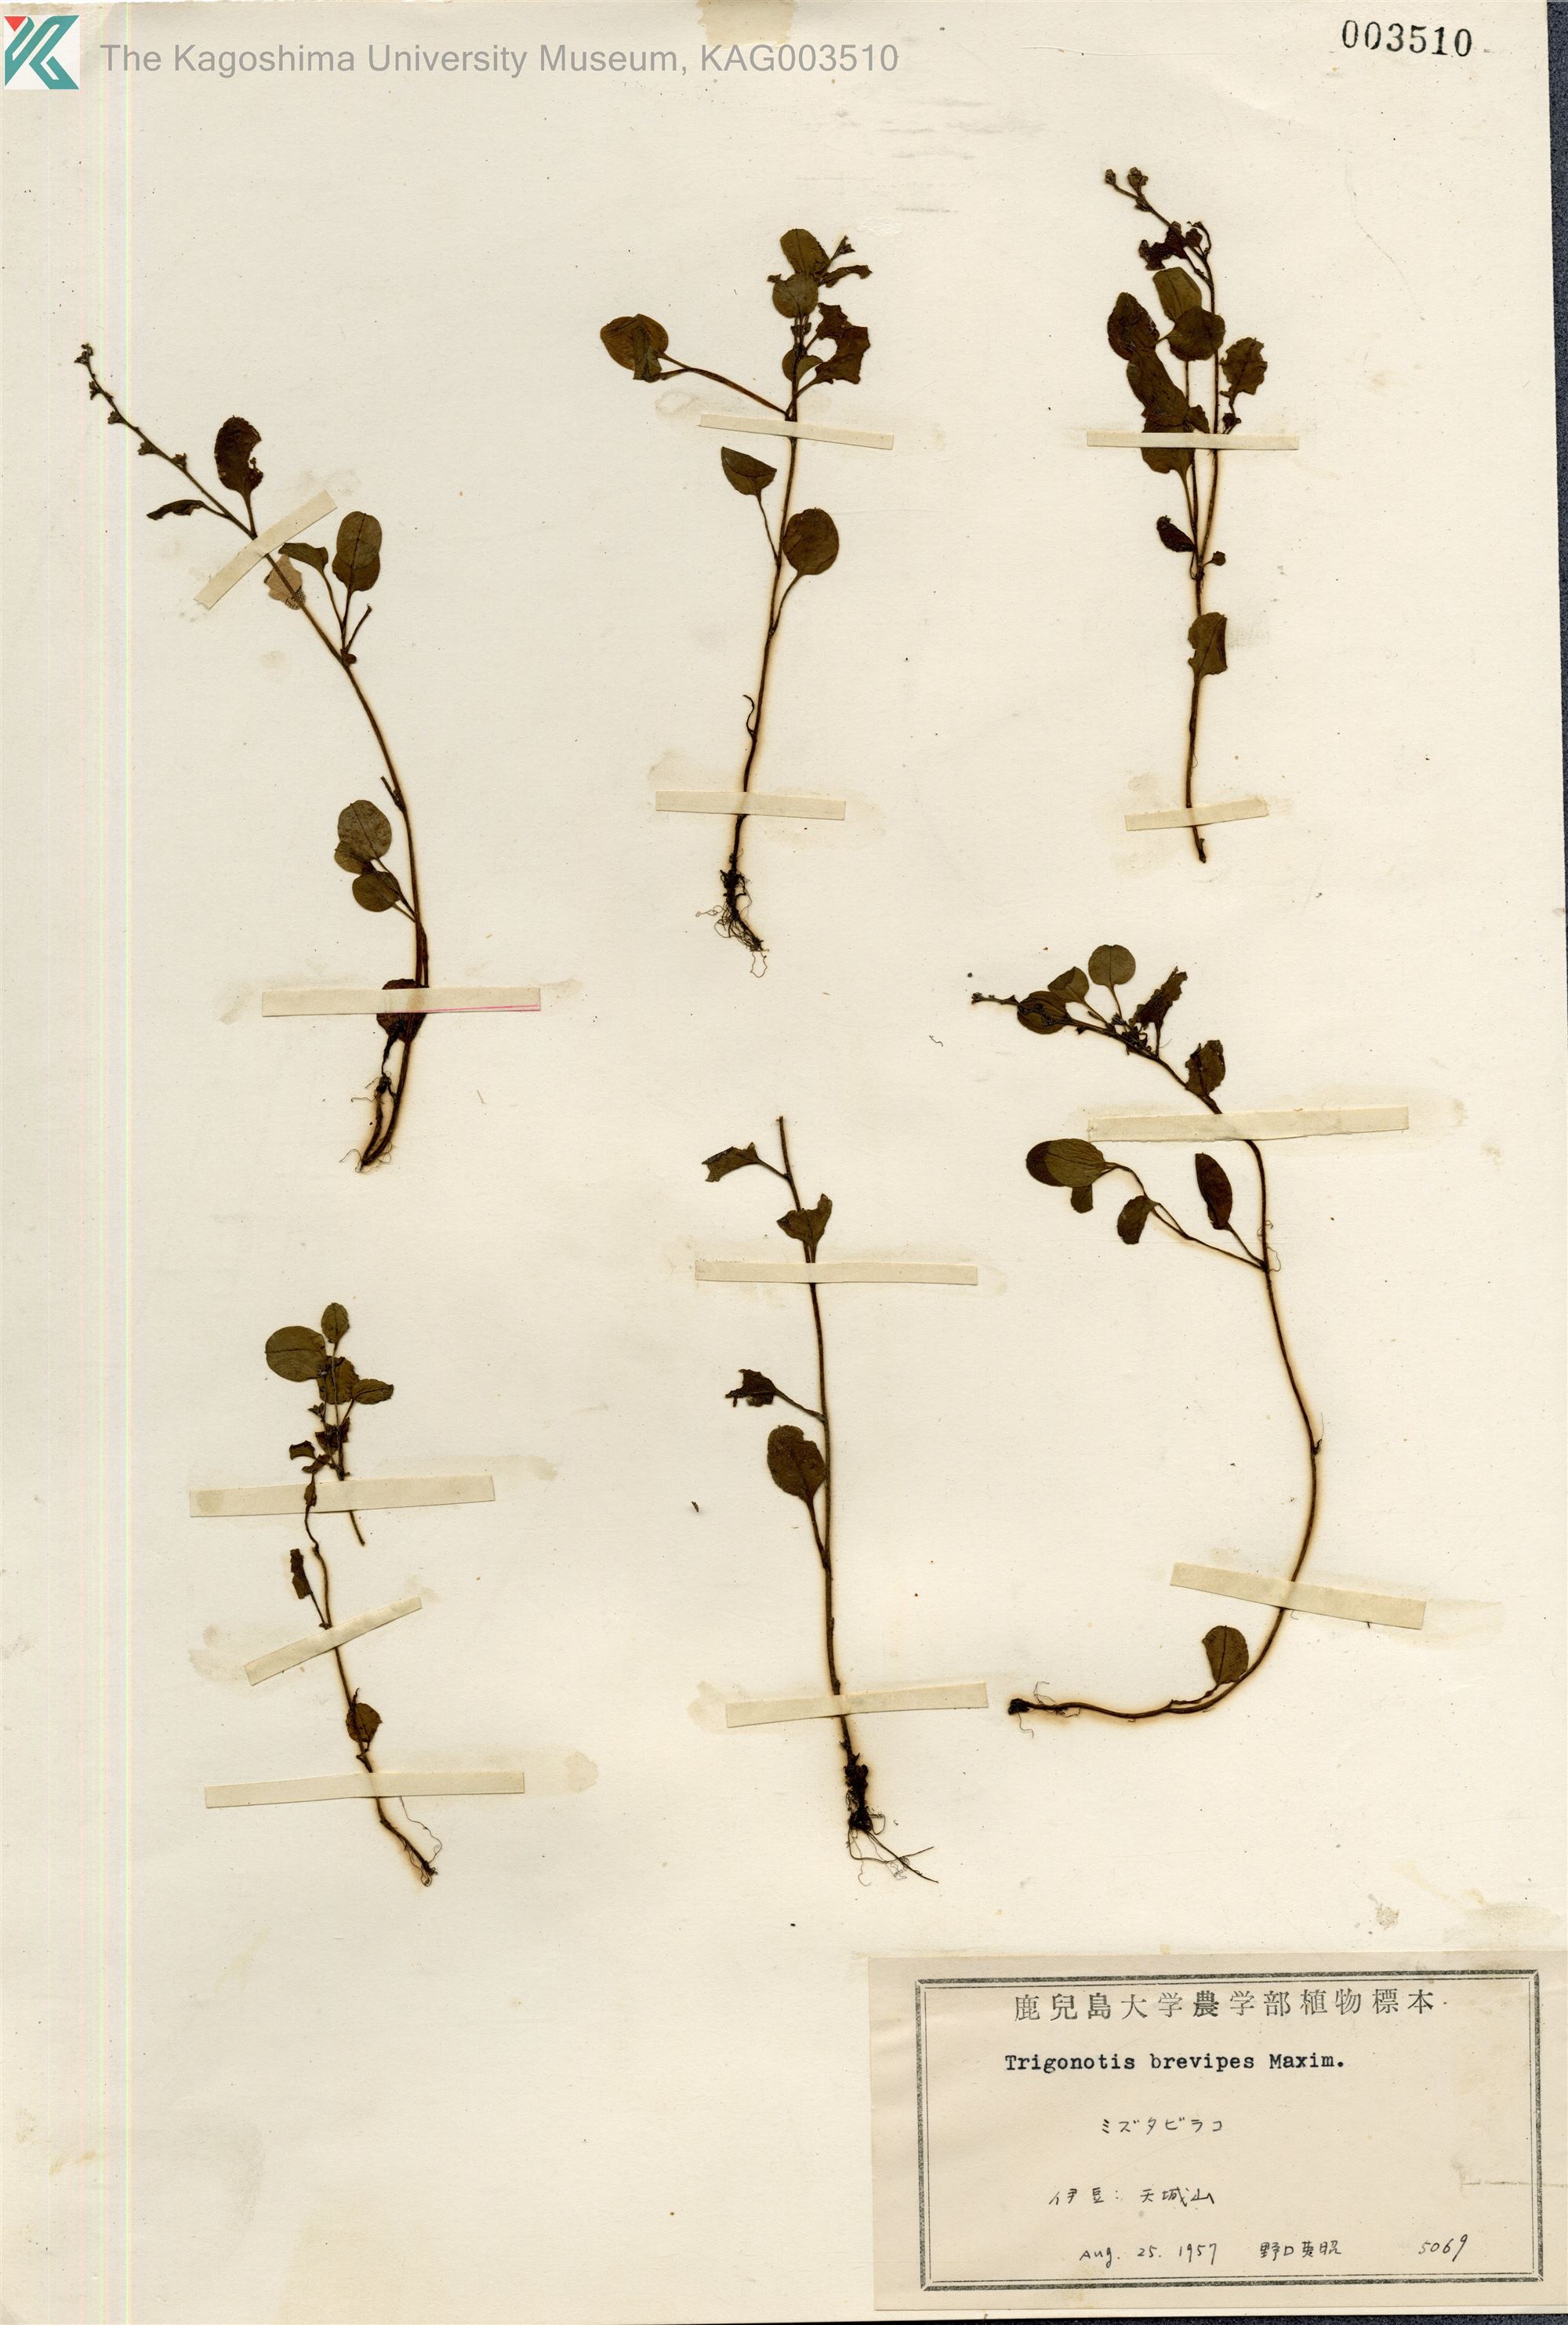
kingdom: Plantae
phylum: Tracheophyta
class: Magnoliopsida
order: Boraginales
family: Boraginaceae
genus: Trigonotis
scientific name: Trigonotis brevipes
